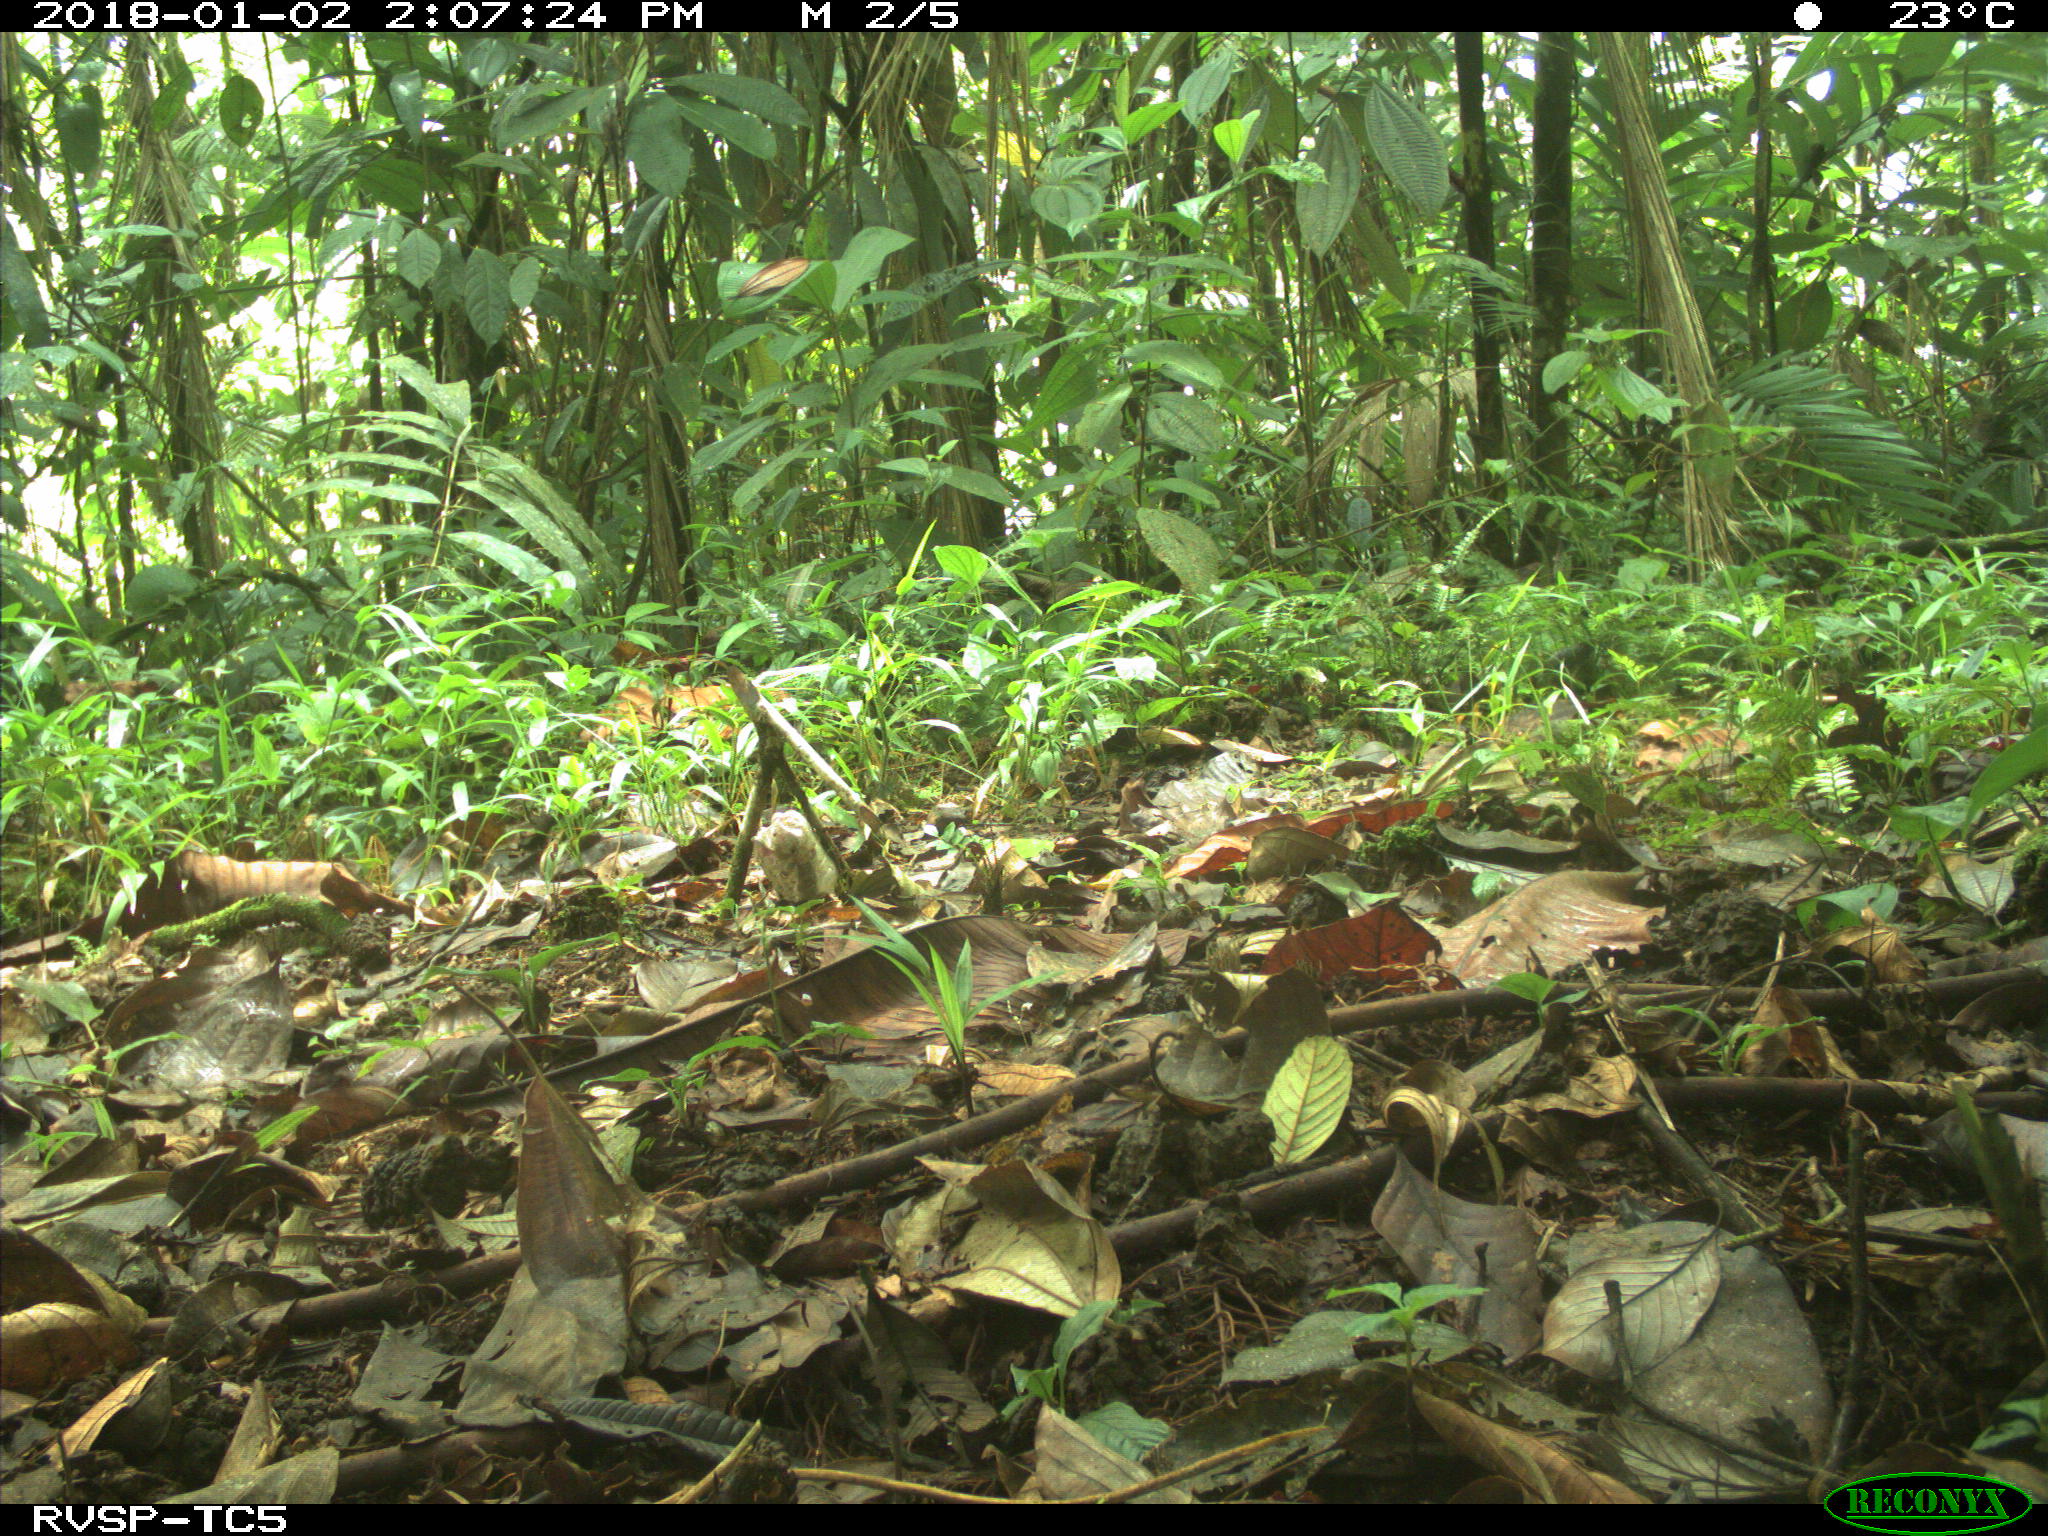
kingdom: Animalia
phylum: Chordata
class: Mammalia
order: Rodentia
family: Dasyproctidae
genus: Dasyprocta
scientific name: Dasyprocta punctata
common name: Central american agouti
